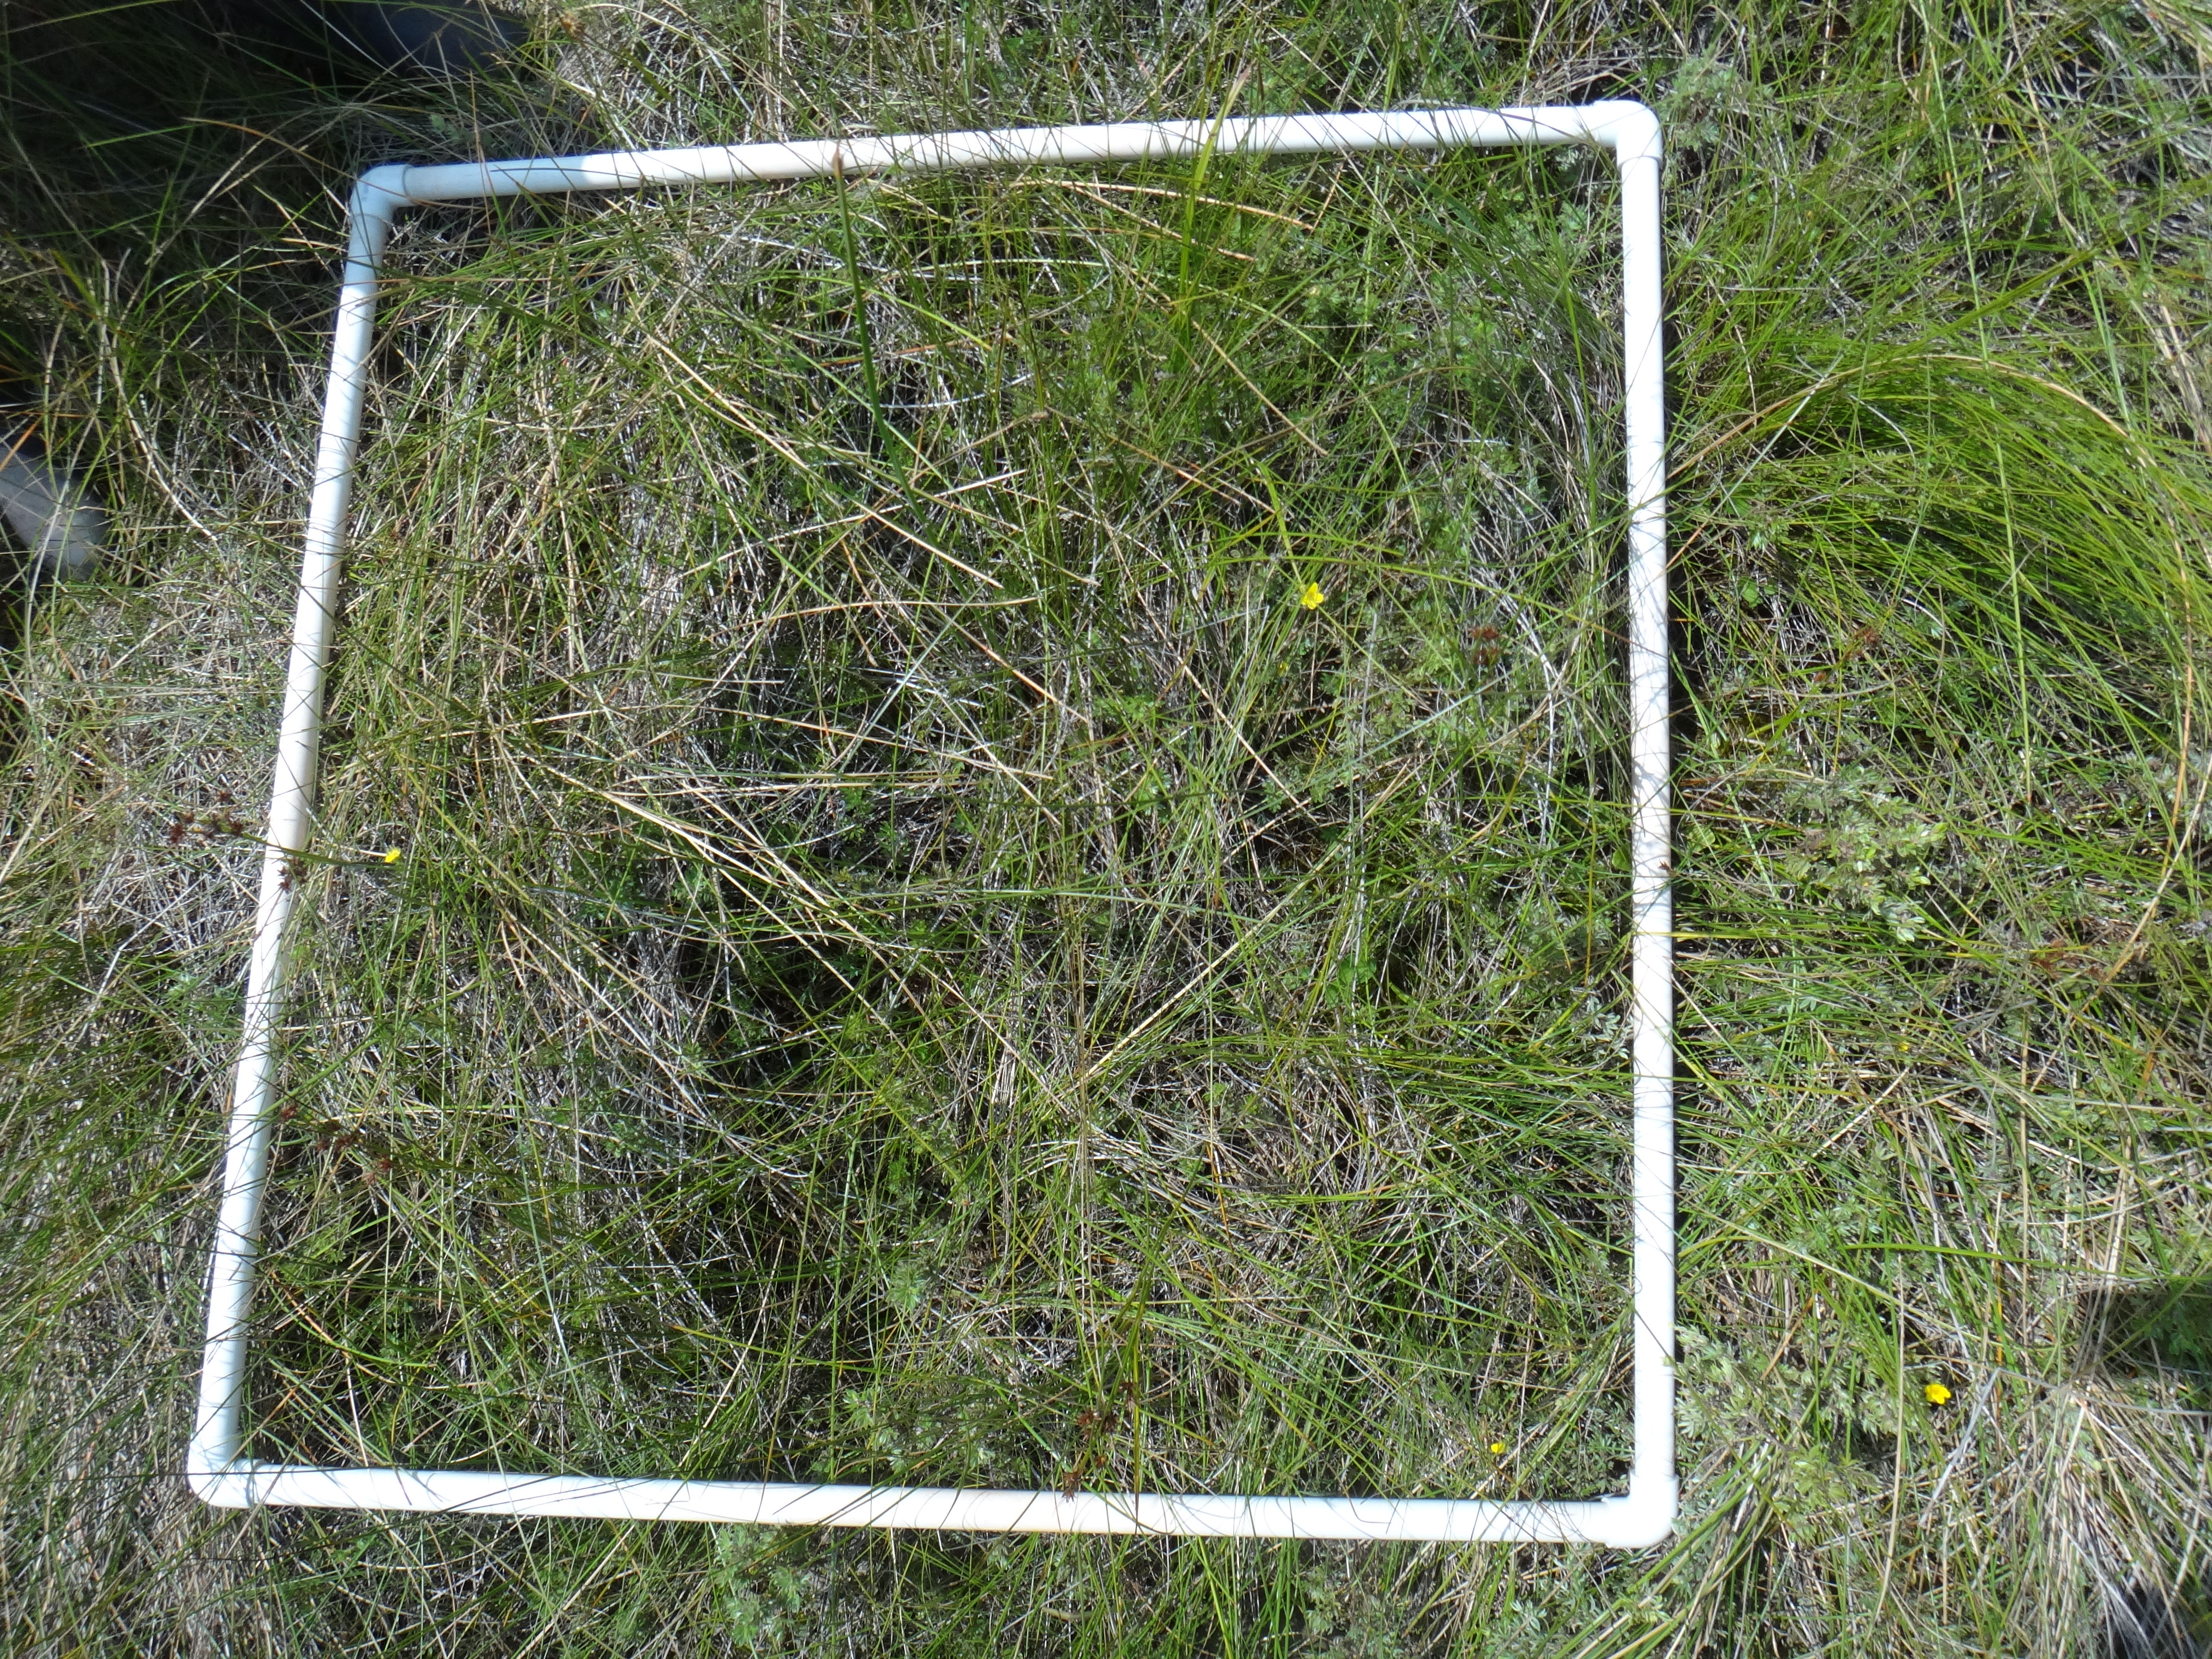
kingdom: Plantae
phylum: Tracheophyta
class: Magnoliopsida
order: Malpighiales
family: Violaceae
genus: Viola
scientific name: Viola cucullata
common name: Marsh blue violet
